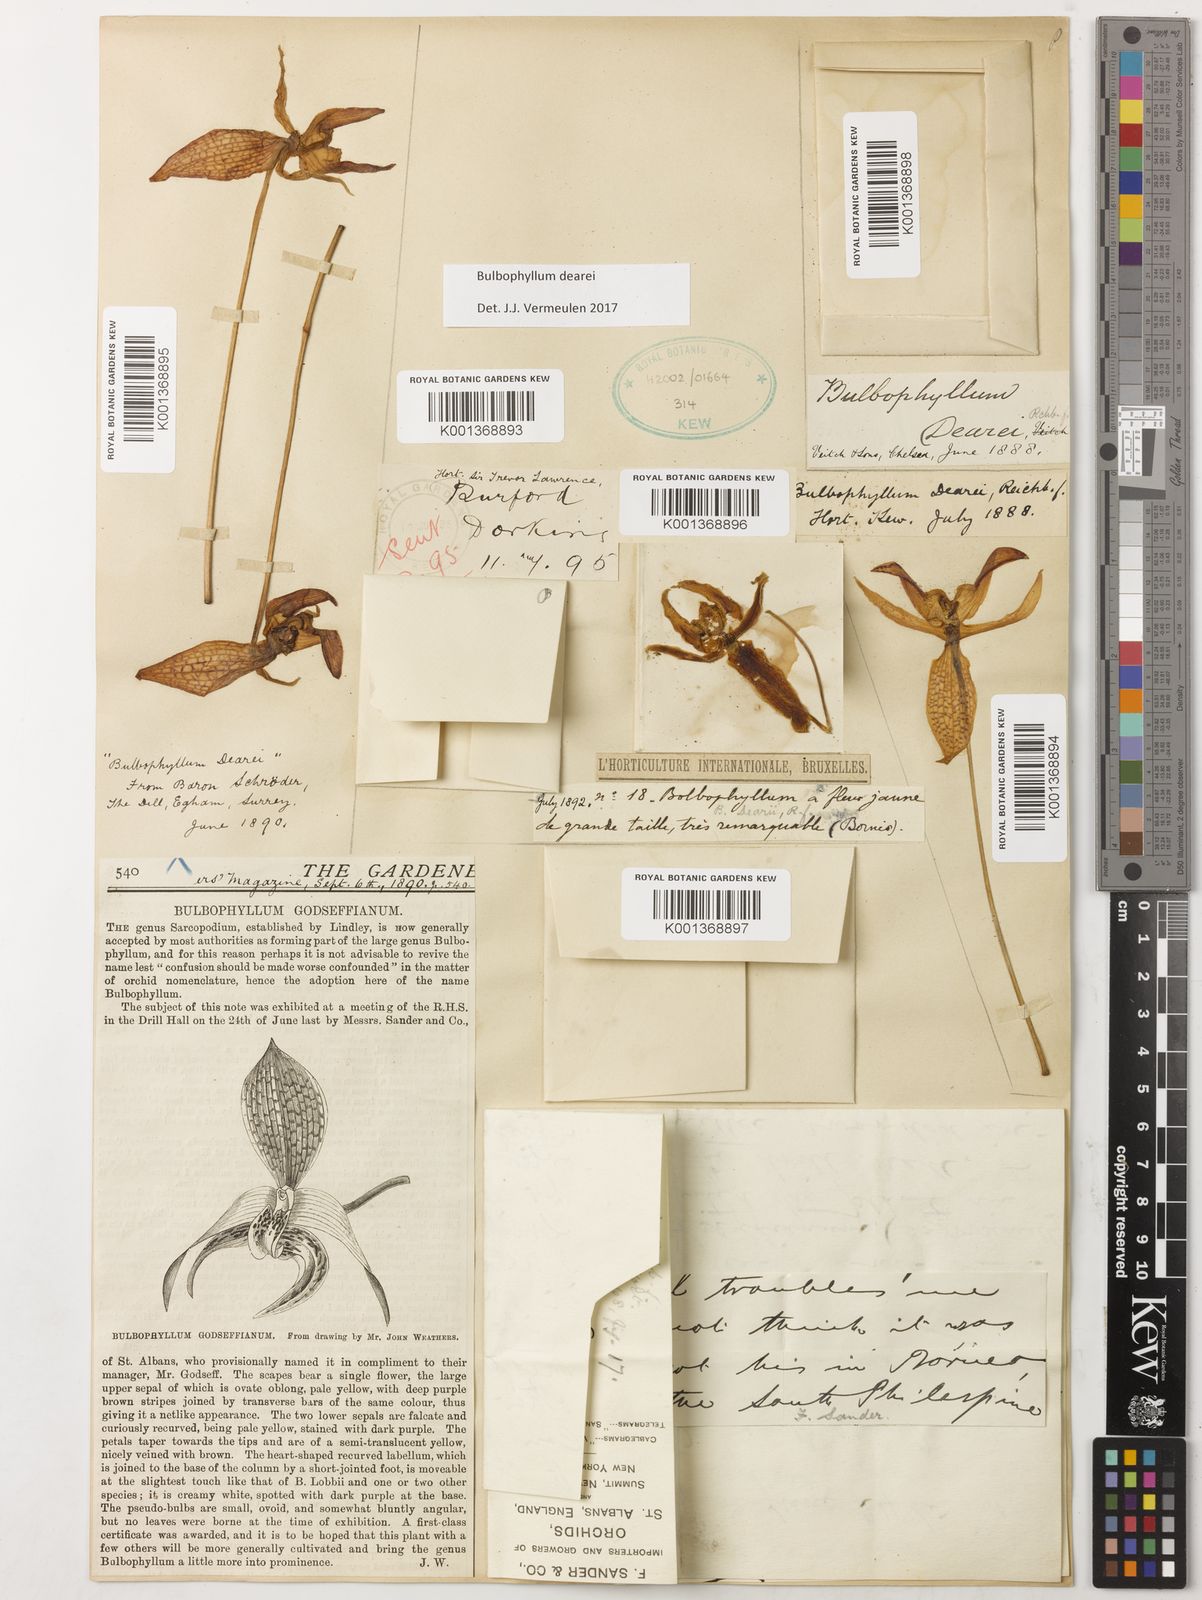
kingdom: Plantae
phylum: Tracheophyta
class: Liliopsida
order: Asparagales
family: Orchidaceae
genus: Bulbophyllum
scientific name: Bulbophyllum dearei
